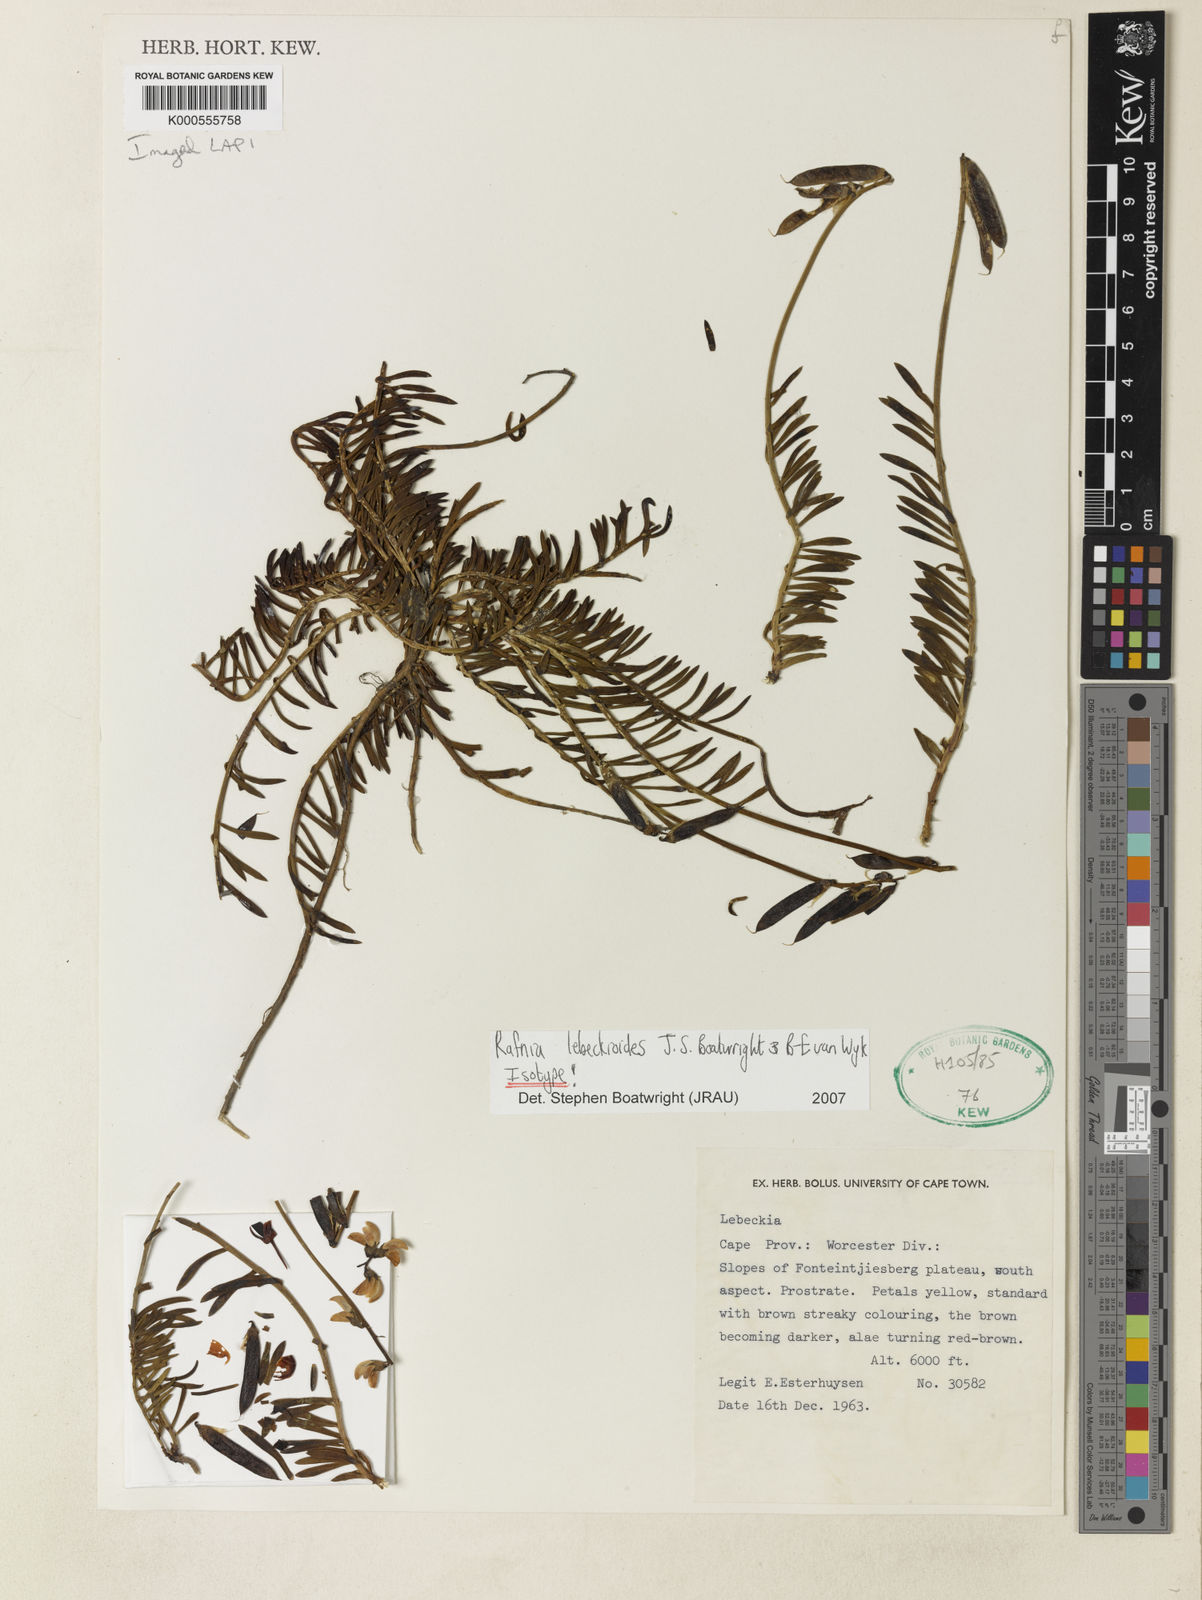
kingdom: Plantae
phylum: Tracheophyta
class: Magnoliopsida
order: Fabales
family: Fabaceae
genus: Rafnia
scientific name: Rafnia lebeckioides
